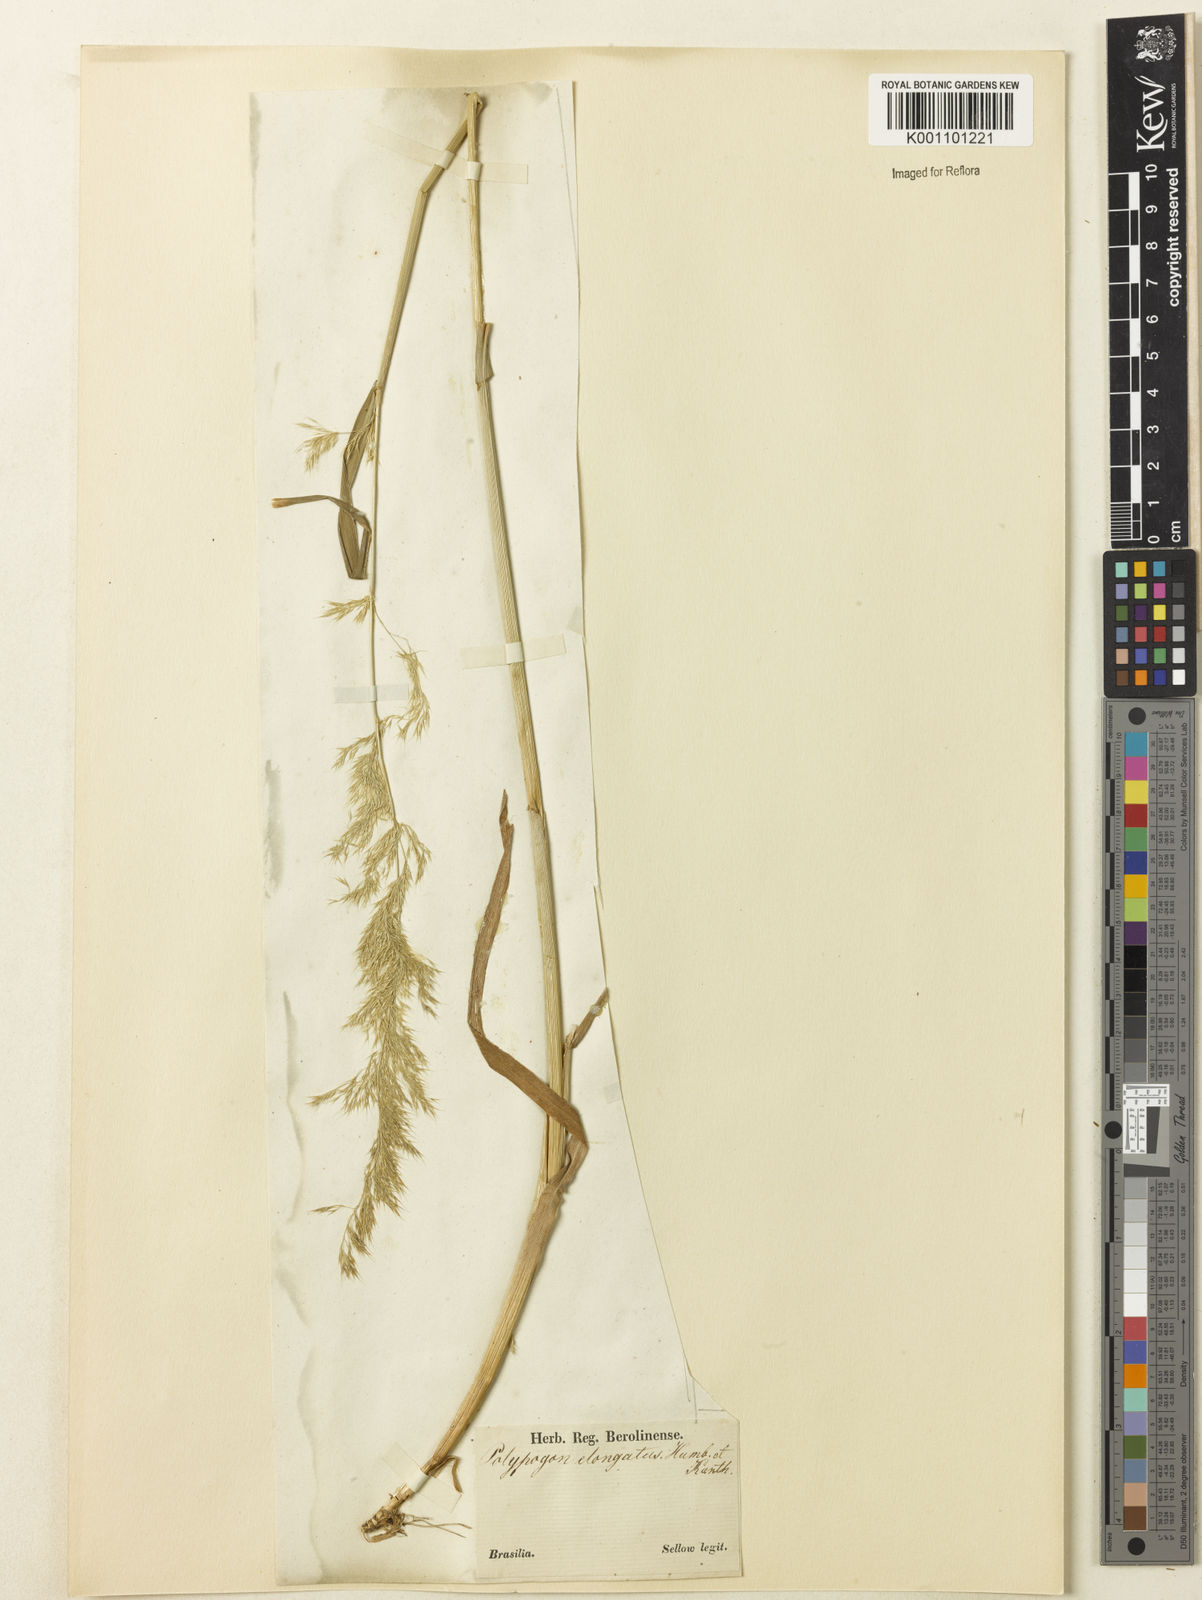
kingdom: Plantae
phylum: Tracheophyta
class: Liliopsida
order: Poales
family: Poaceae
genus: Polypogon
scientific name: Polypogon elongatus
